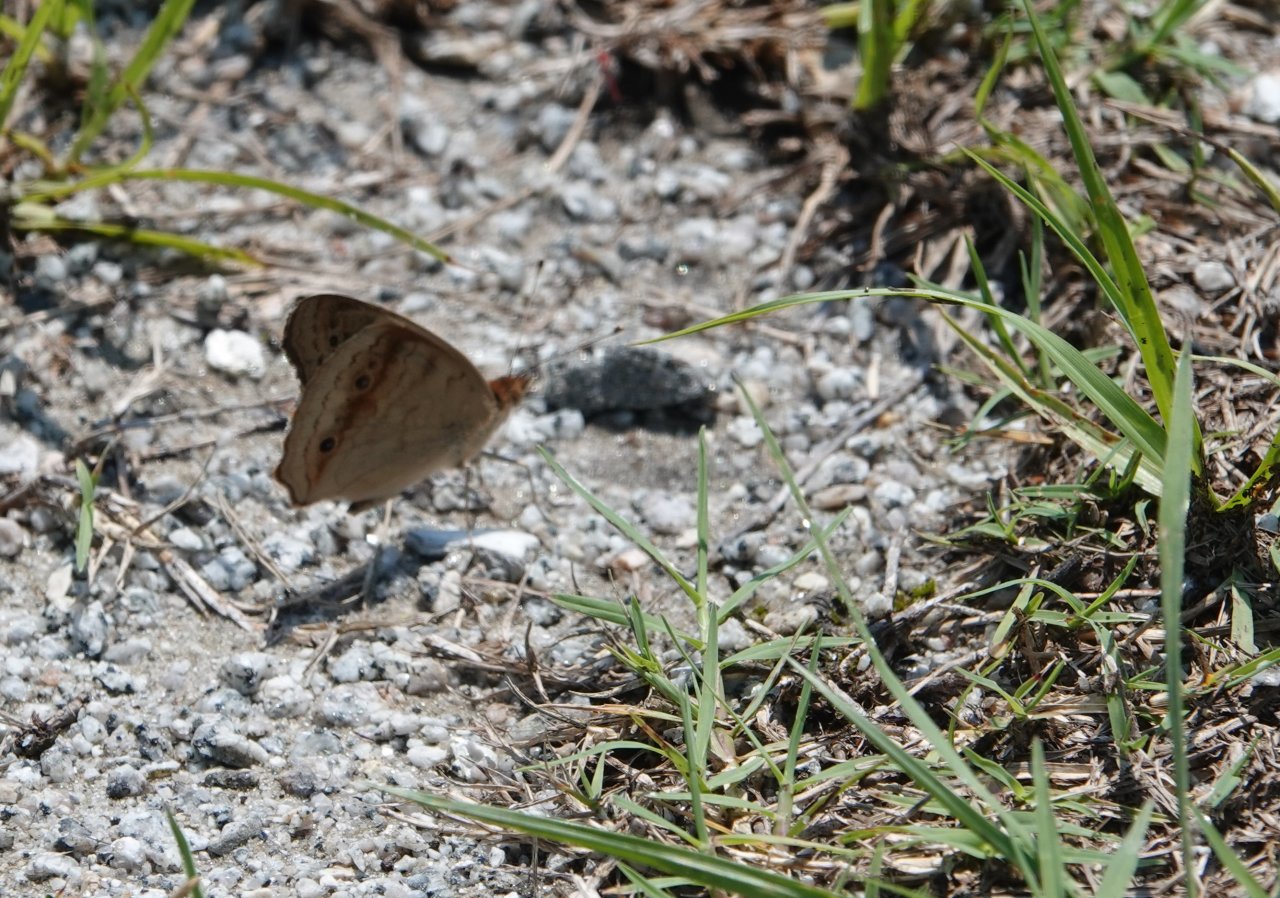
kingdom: Animalia
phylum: Arthropoda
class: Insecta
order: Lepidoptera
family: Nymphalidae
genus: Junonia
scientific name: Junonia coenia
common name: Common Buckeye
